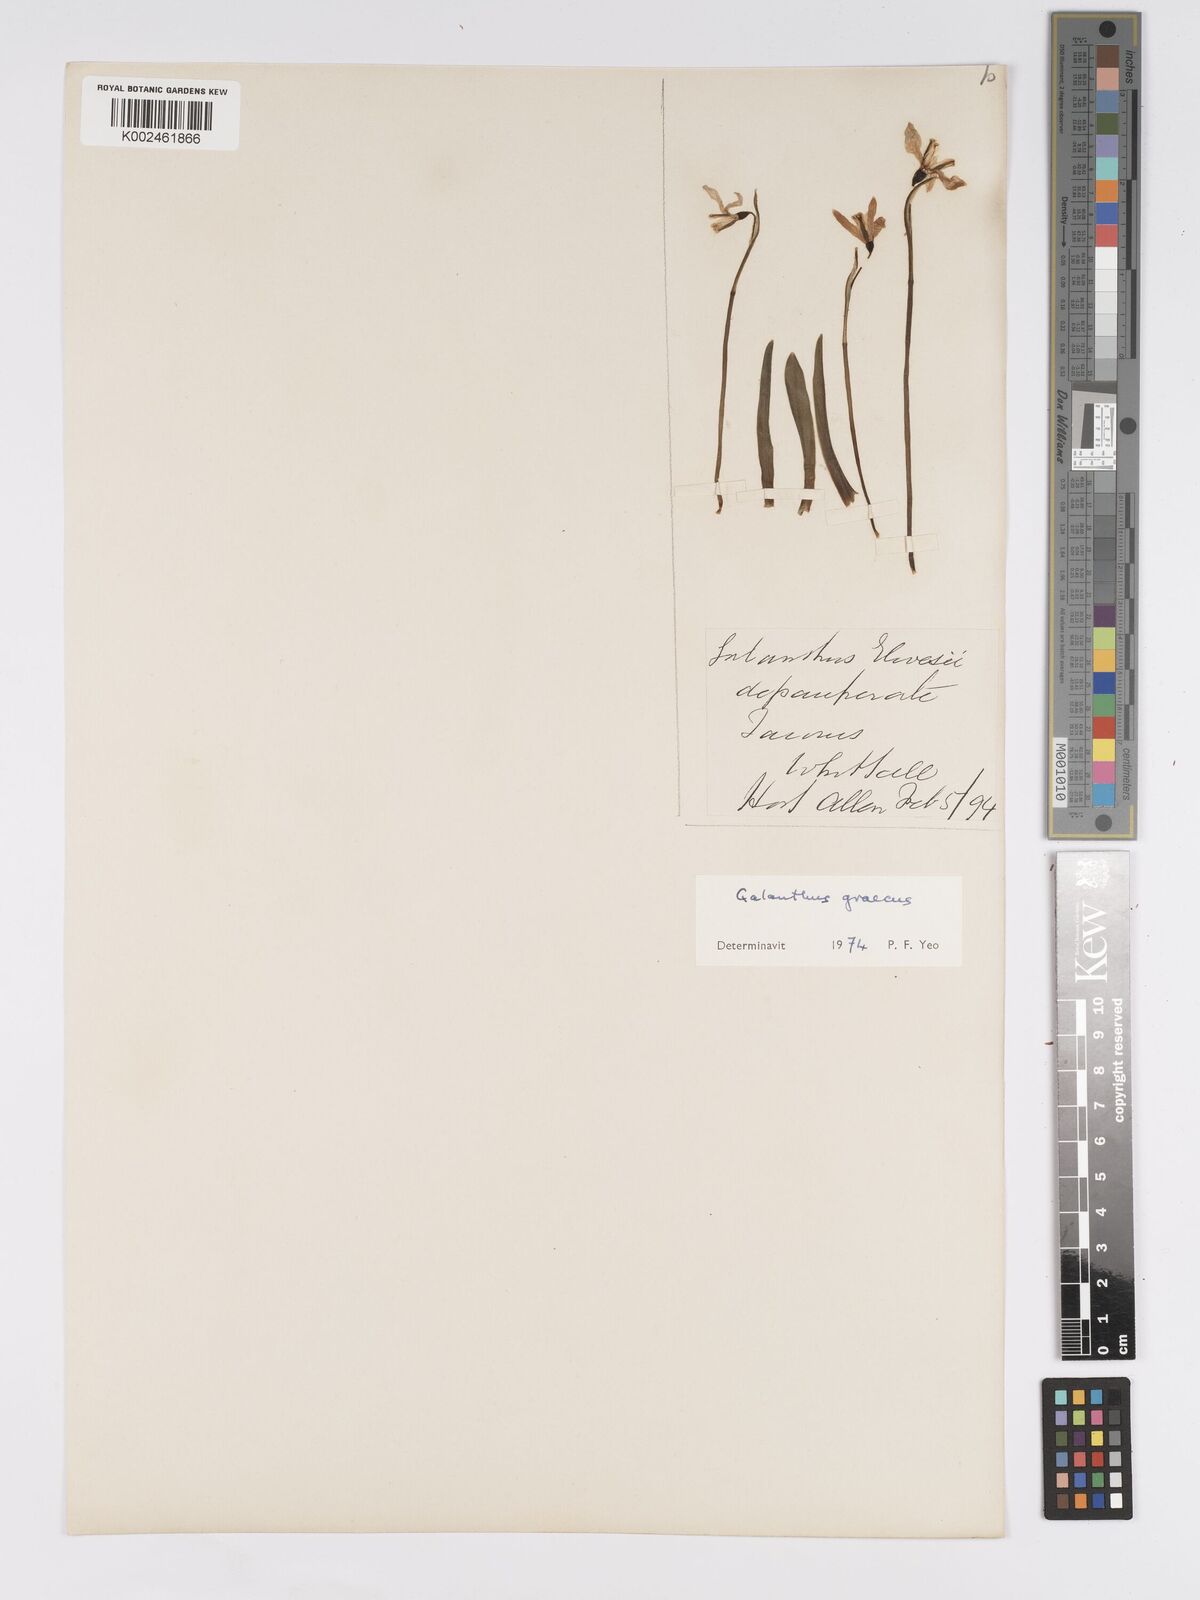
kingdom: Plantae
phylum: Tracheophyta
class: Liliopsida
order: Asparagales
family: Amaryllidaceae
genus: Galanthus
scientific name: Galanthus elwesii
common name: Greater snowdrop
